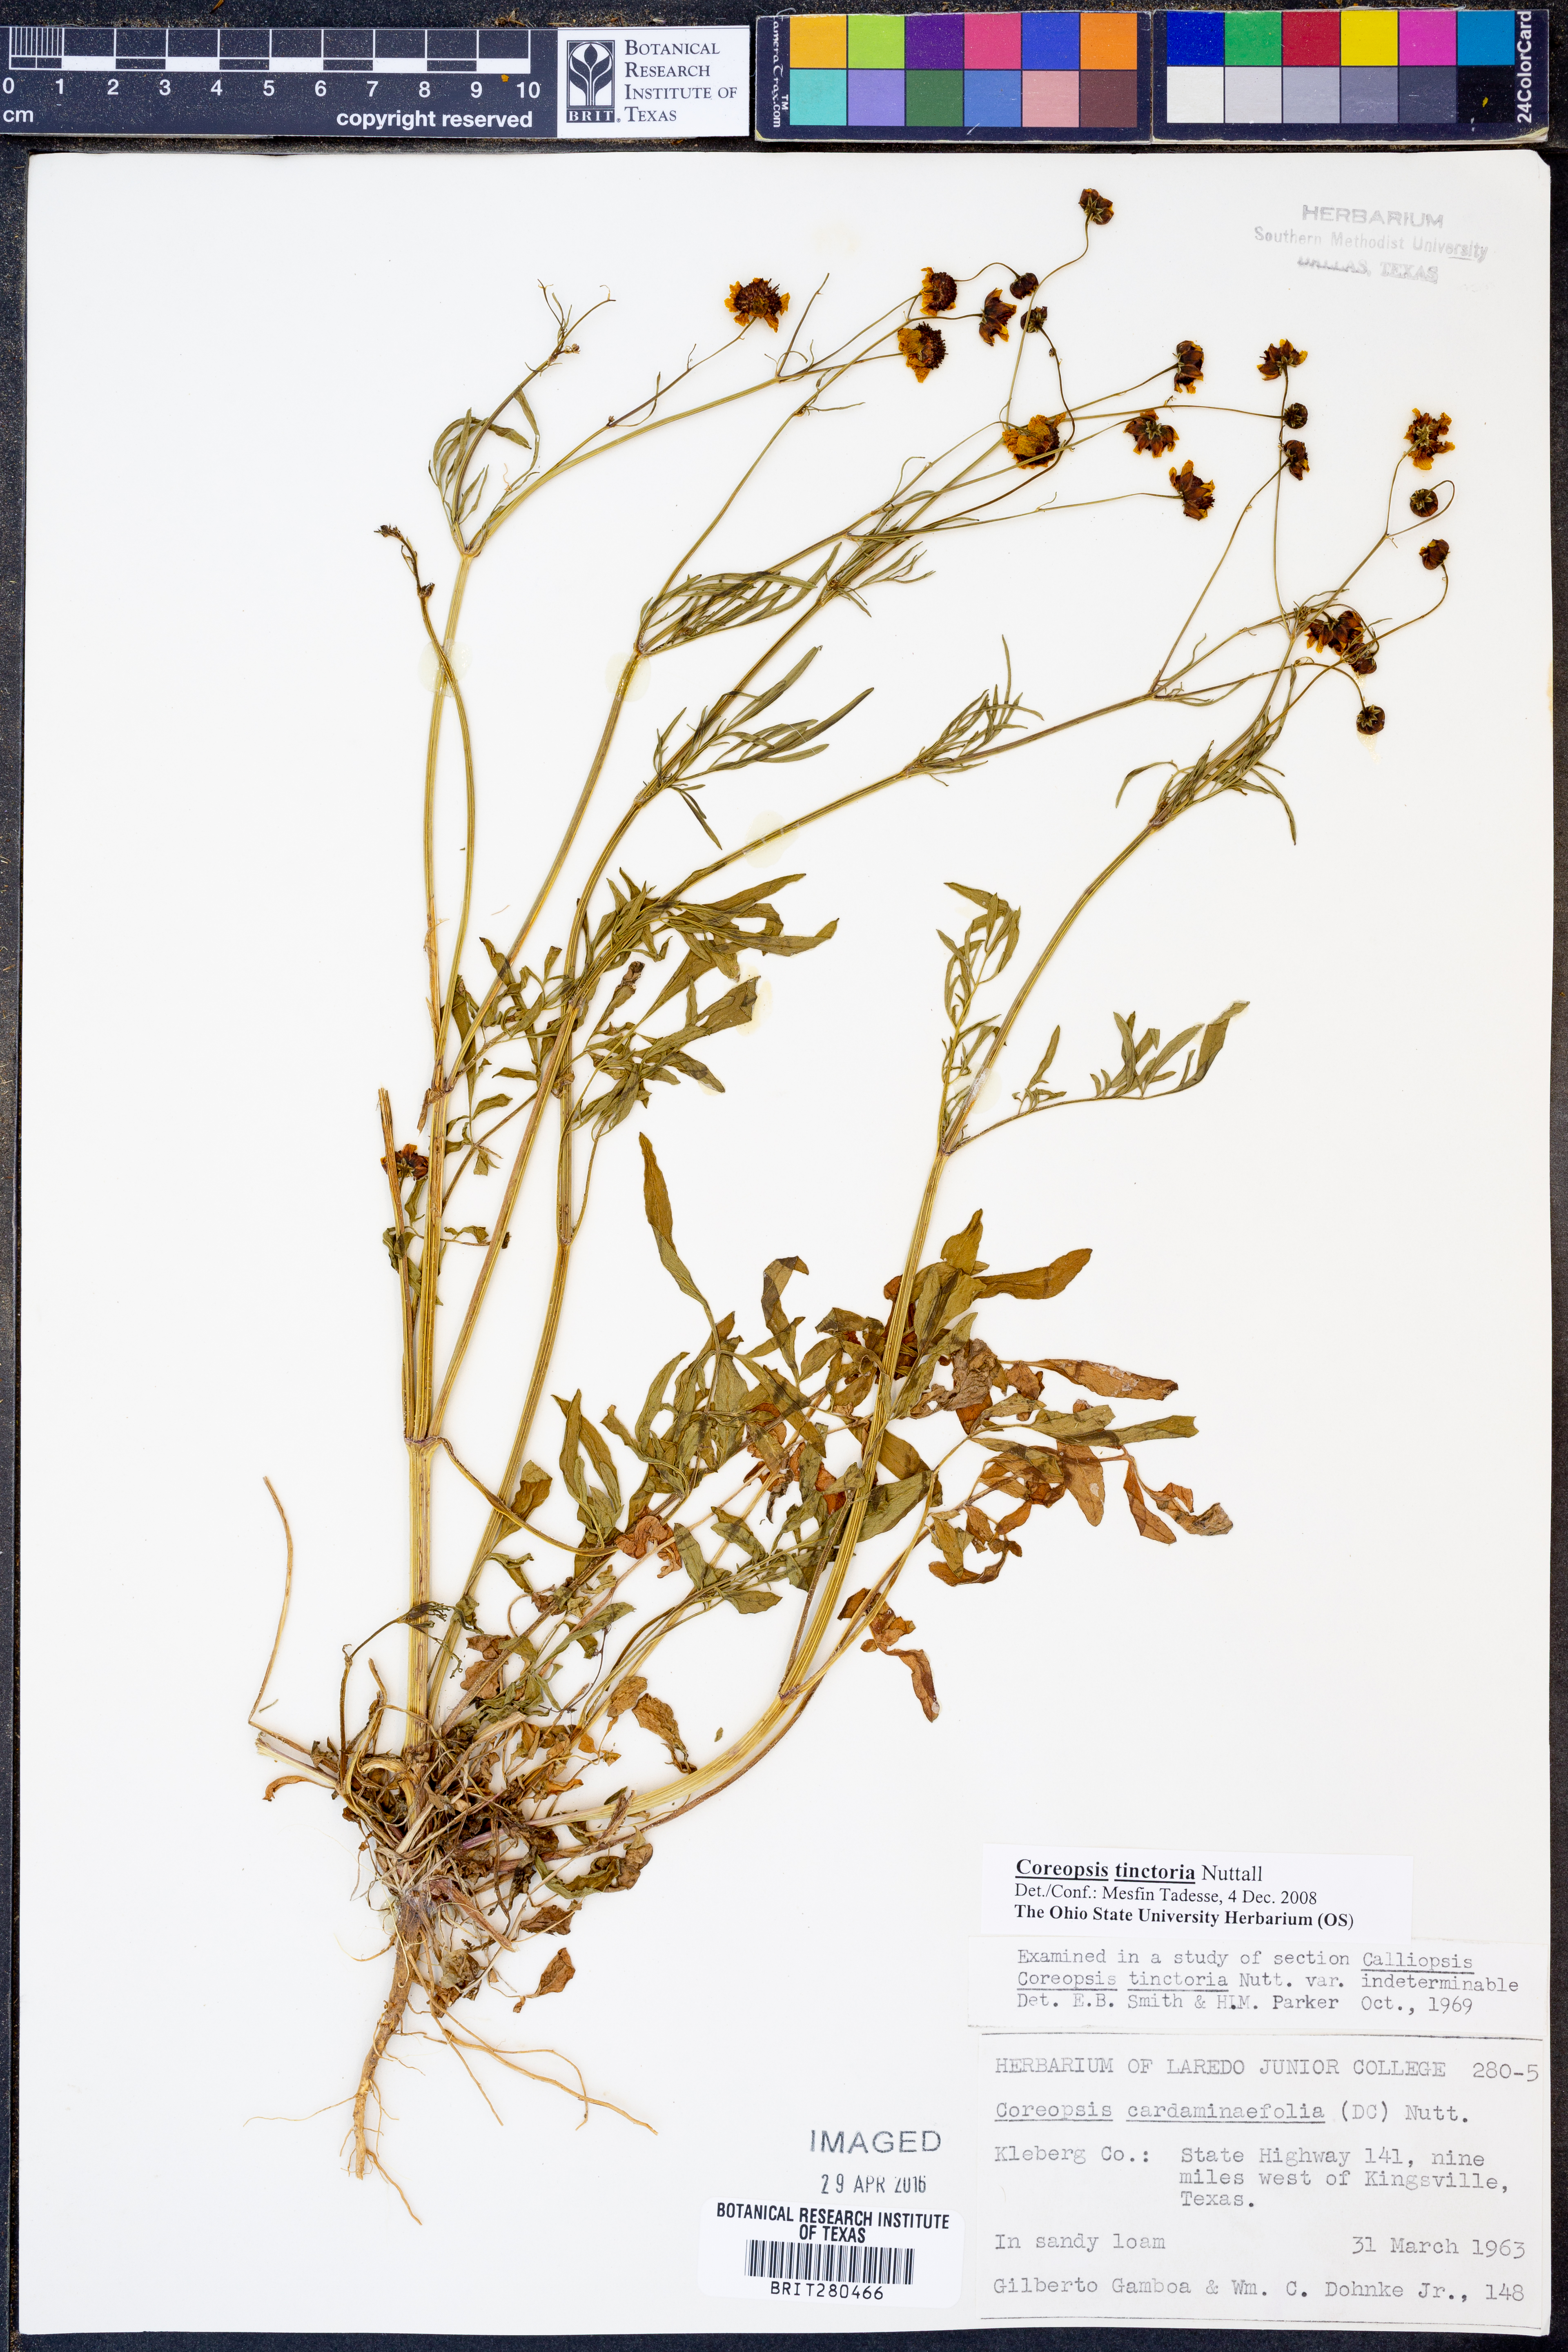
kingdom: Plantae
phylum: Tracheophyta
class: Magnoliopsida
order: Asterales
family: Asteraceae
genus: Coreopsis
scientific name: Coreopsis tinctoria
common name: Garden tickseed
